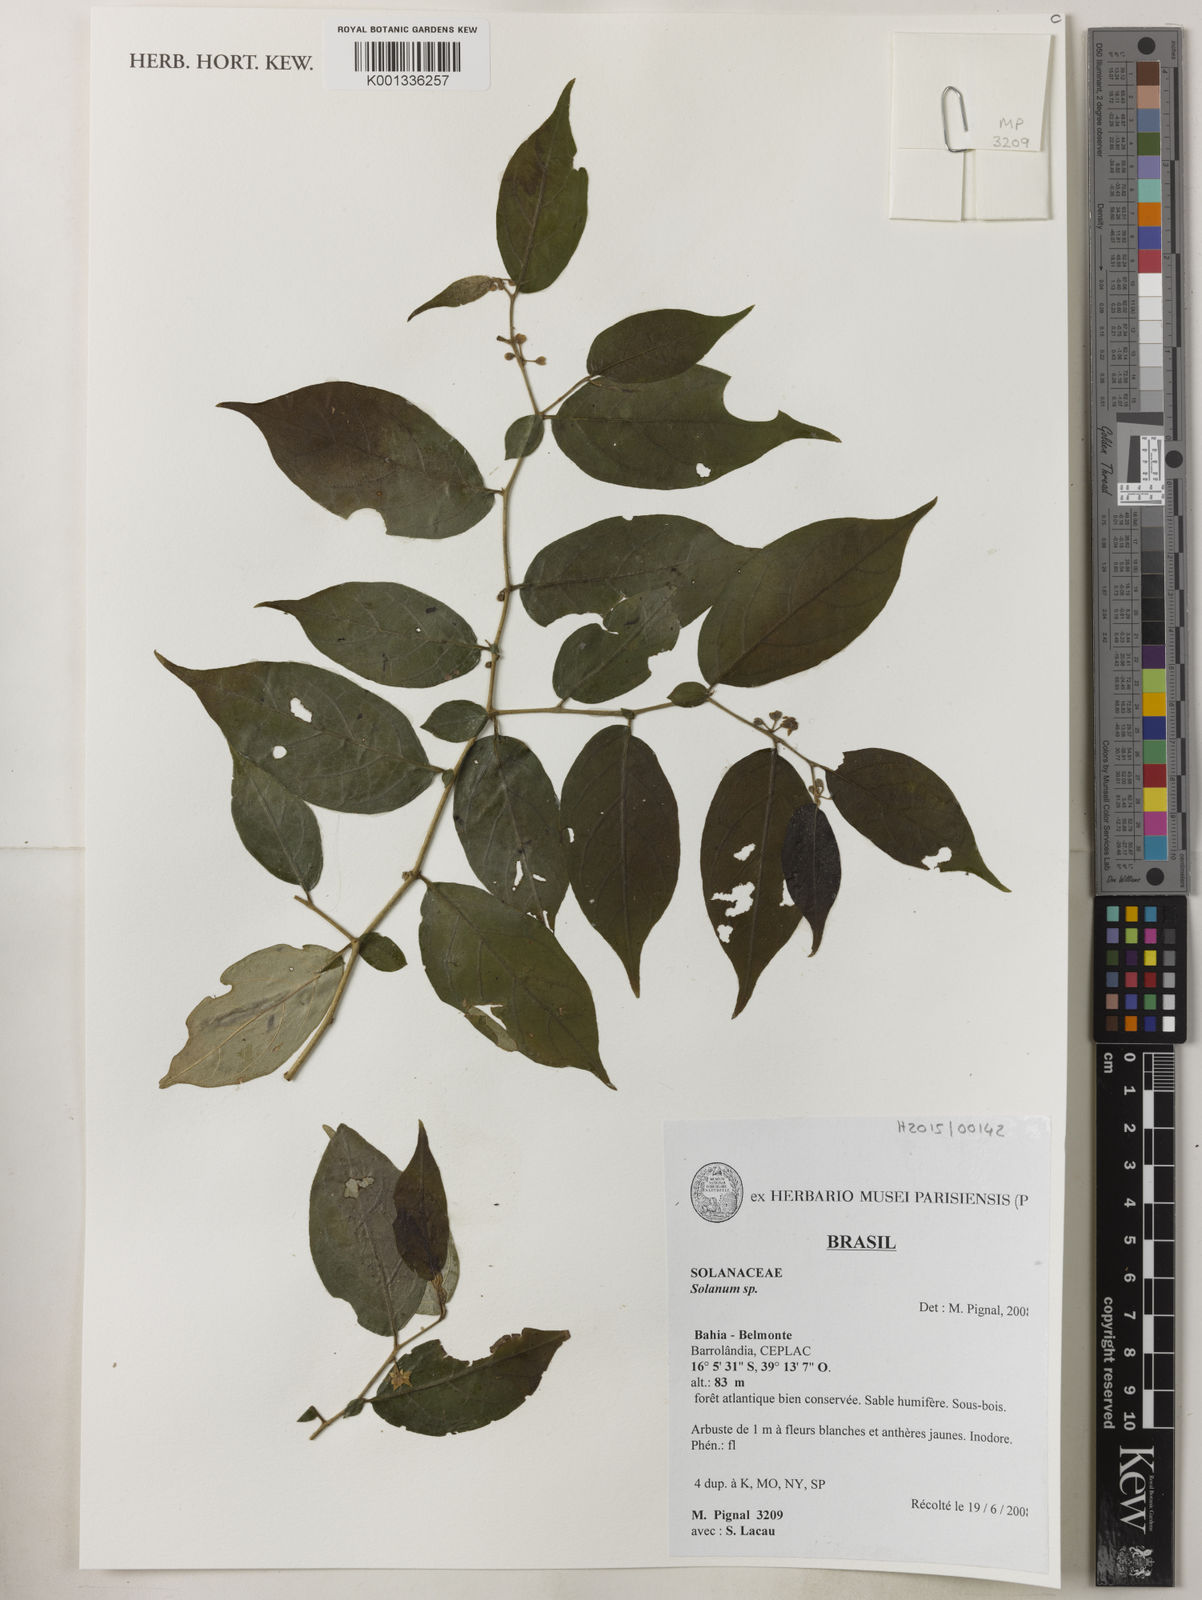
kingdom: Plantae
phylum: Tracheophyta
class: Magnoliopsida
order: Solanales
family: Solanaceae
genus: Solanum
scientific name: Solanum maranguapense
